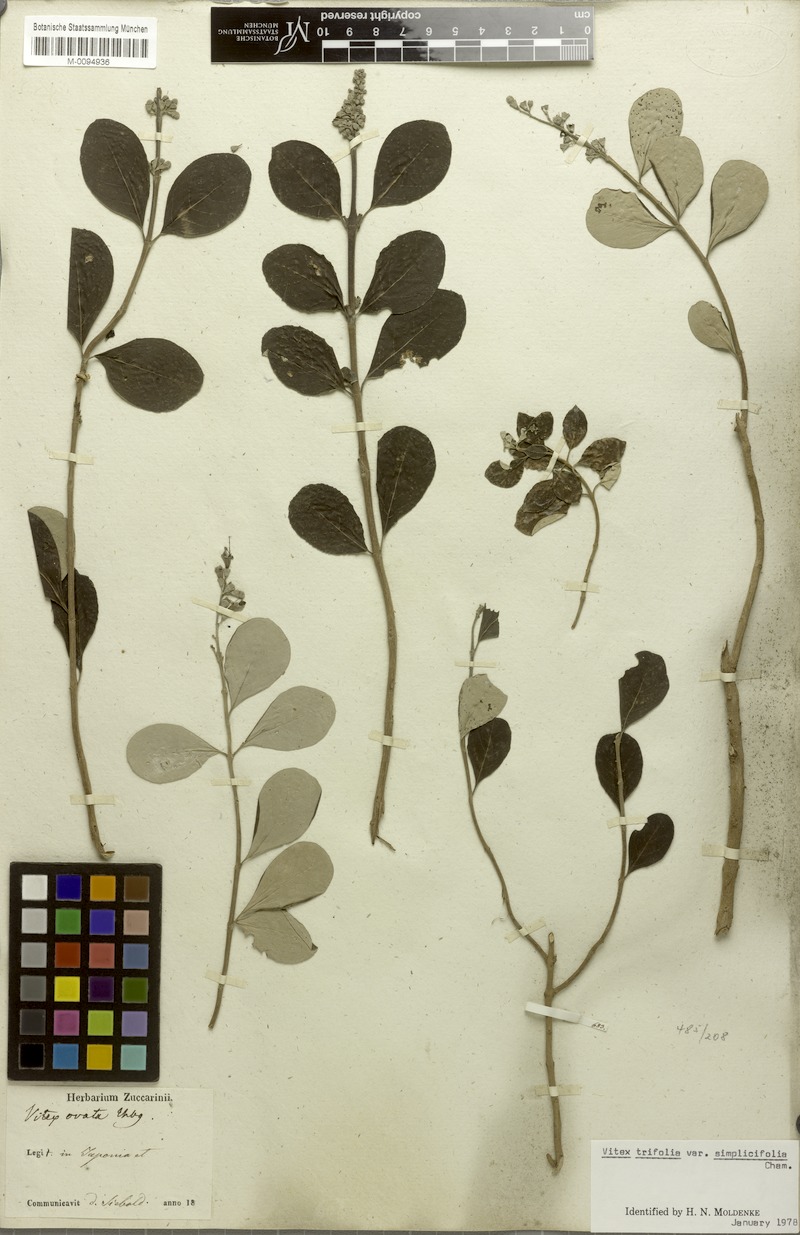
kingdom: Plantae
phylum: Tracheophyta
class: Magnoliopsida
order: Lamiales
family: Lamiaceae
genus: Vitex
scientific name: Vitex rotundifolia
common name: Beach vitex
